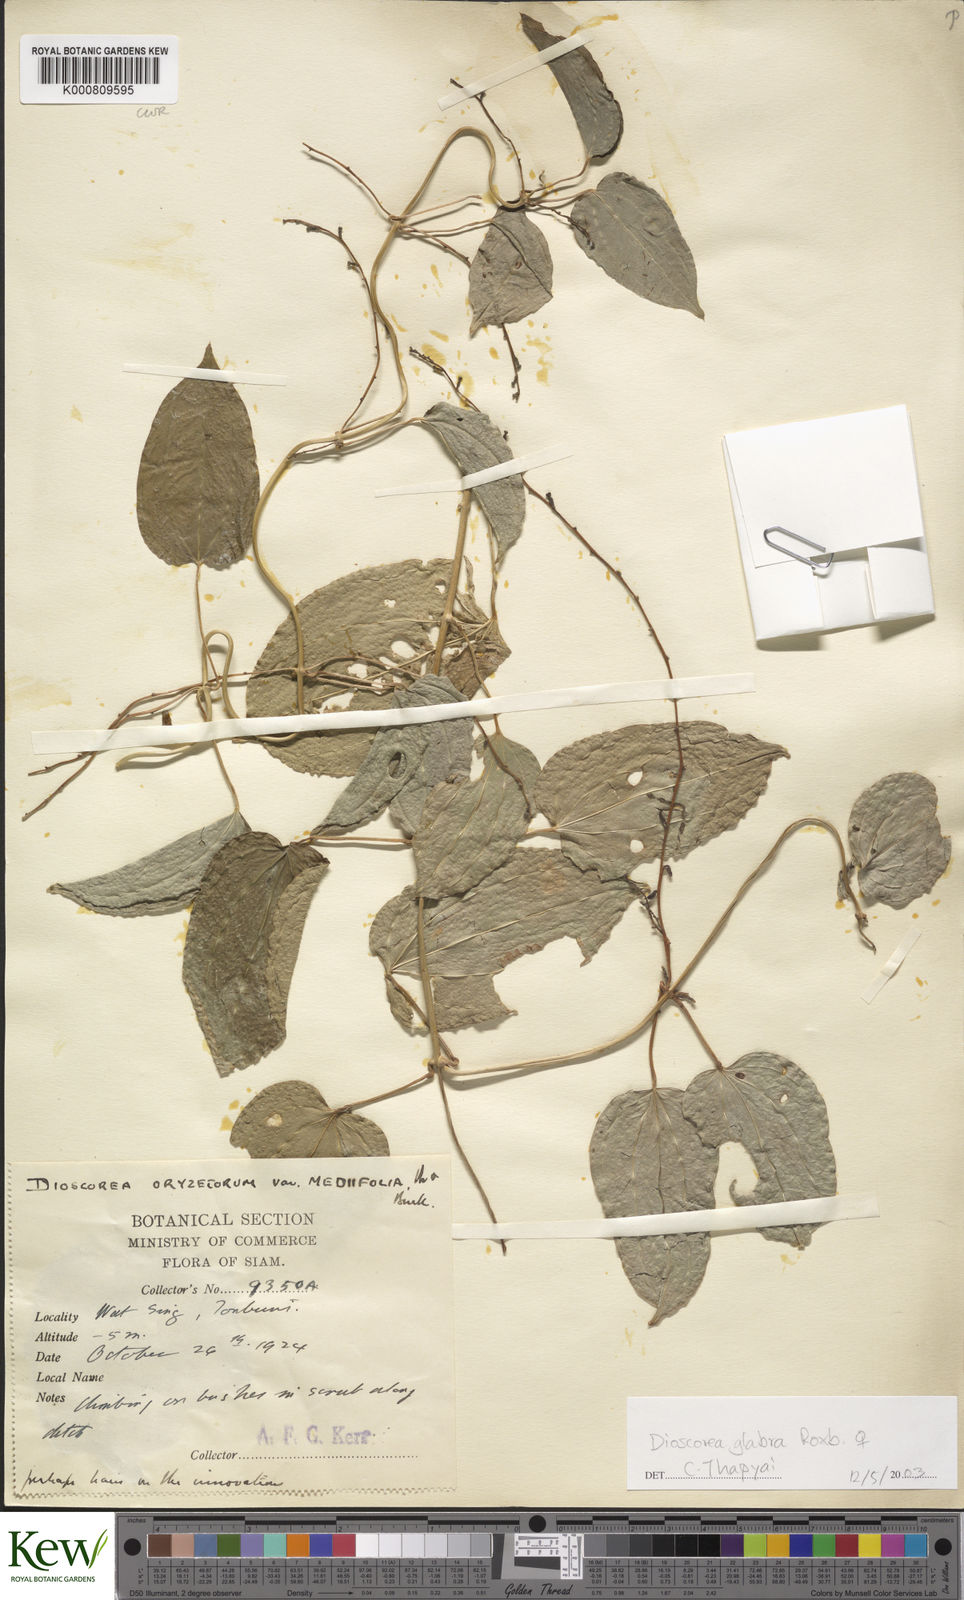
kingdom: Plantae
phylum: Tracheophyta
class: Liliopsida
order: Dioscoreales
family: Dioscoreaceae
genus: Dioscorea
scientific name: Dioscorea glabra
